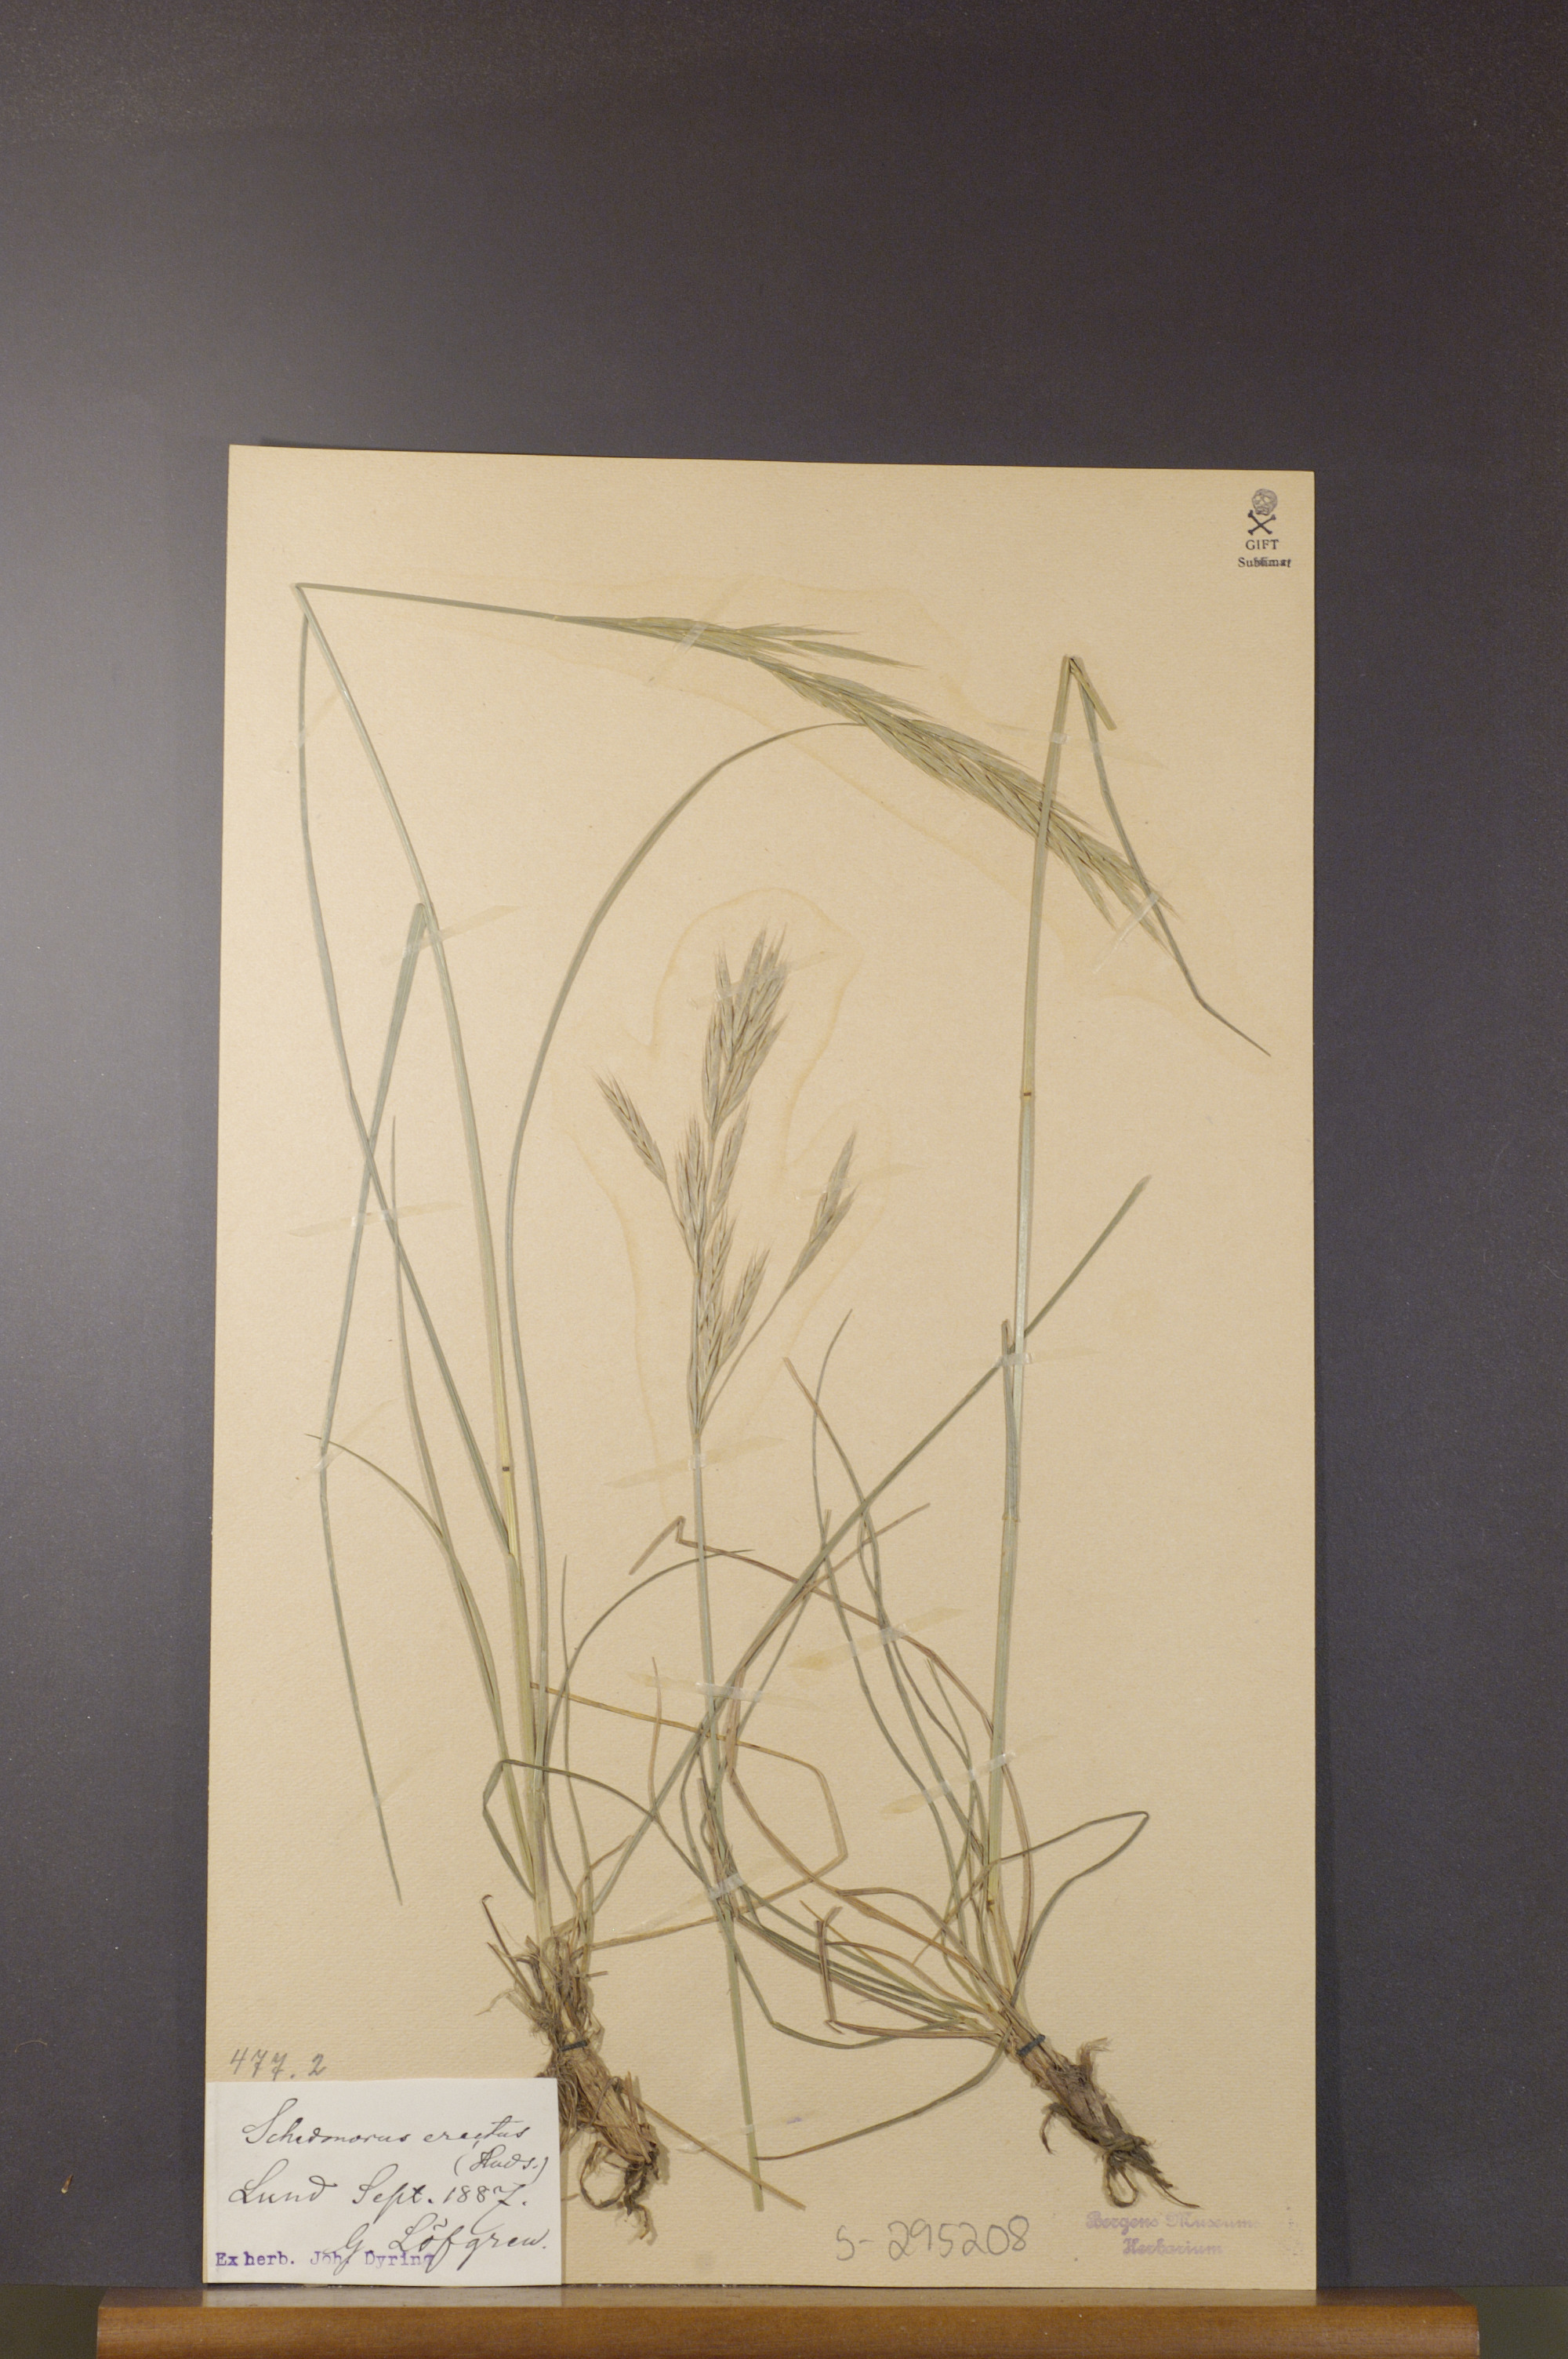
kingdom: Plantae
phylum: Tracheophyta
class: Liliopsida
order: Poales
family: Poaceae
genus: Bromus
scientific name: Bromus erectus
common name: Erect brome
